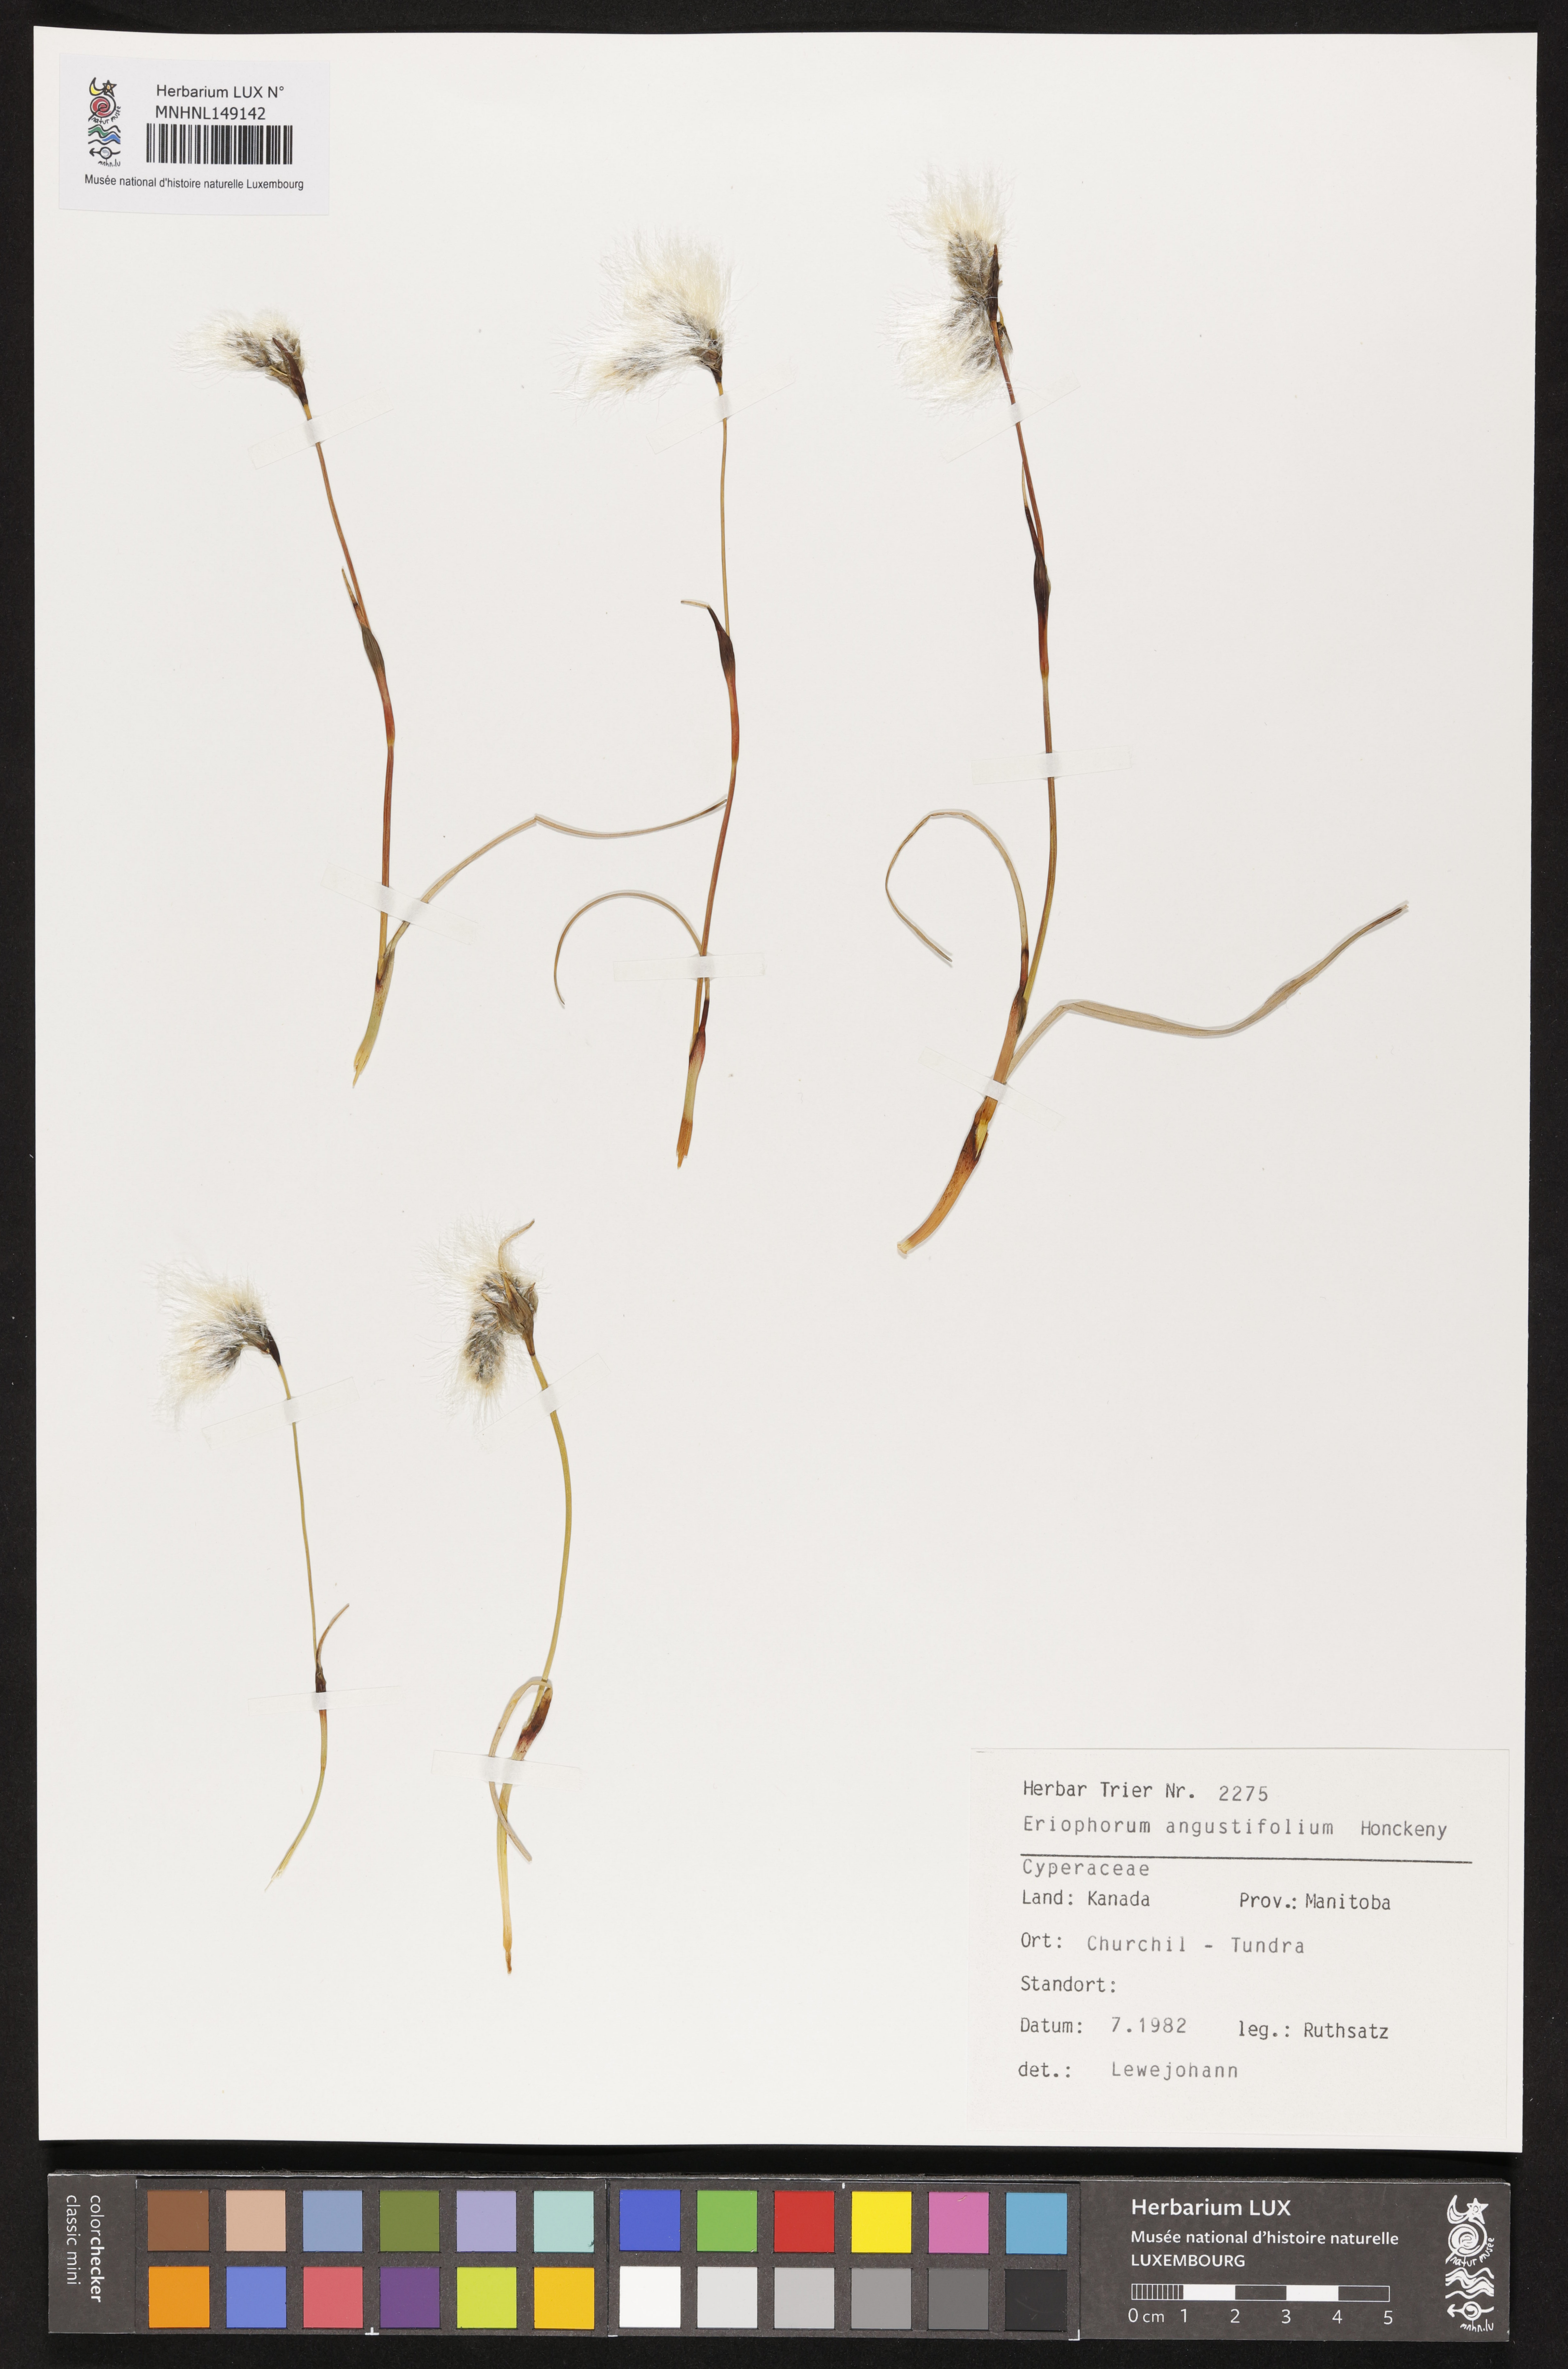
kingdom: Plantae
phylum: Tracheophyta
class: Liliopsida
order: Poales
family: Cyperaceae
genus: Eriophorum
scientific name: Eriophorum angustifolium
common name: Common cottongrass
